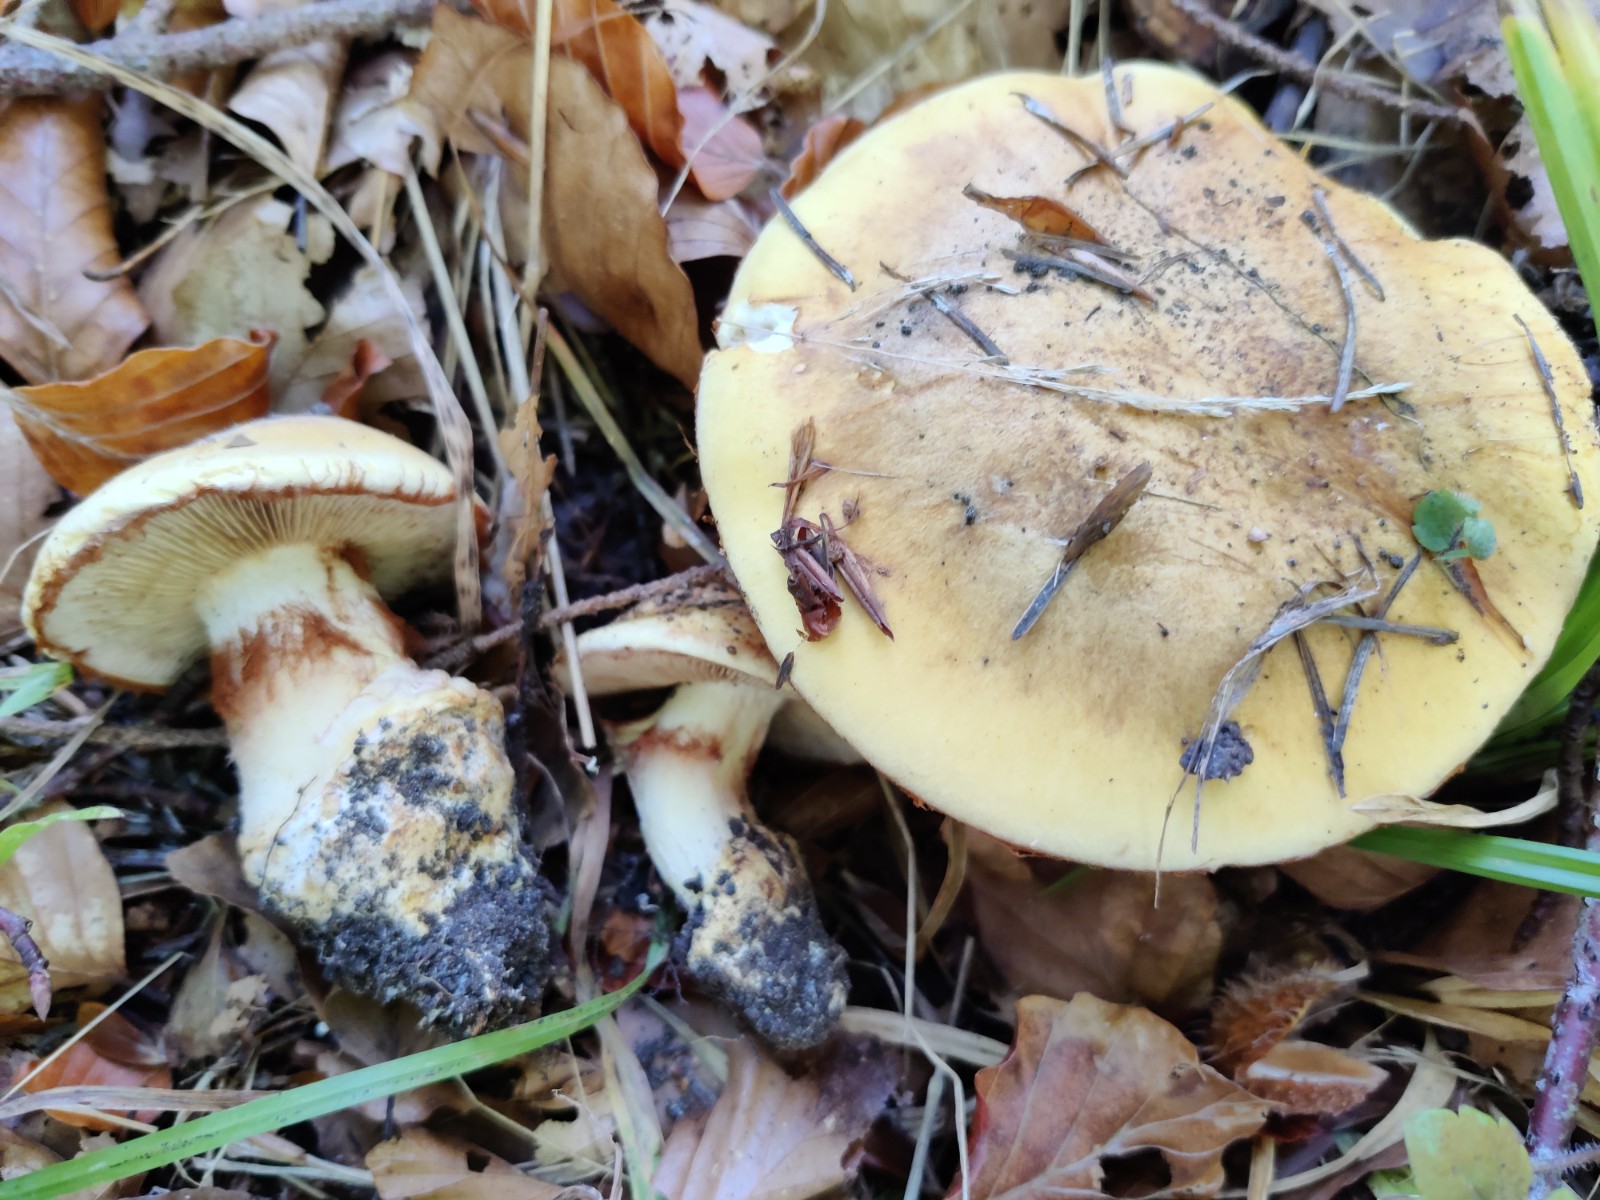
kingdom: Fungi
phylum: Basidiomycota
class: Agaricomycetes
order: Agaricales
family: Cortinariaceae
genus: Phlegmacium
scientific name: Phlegmacium caesiocortinatum
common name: rundsporet slørhat
